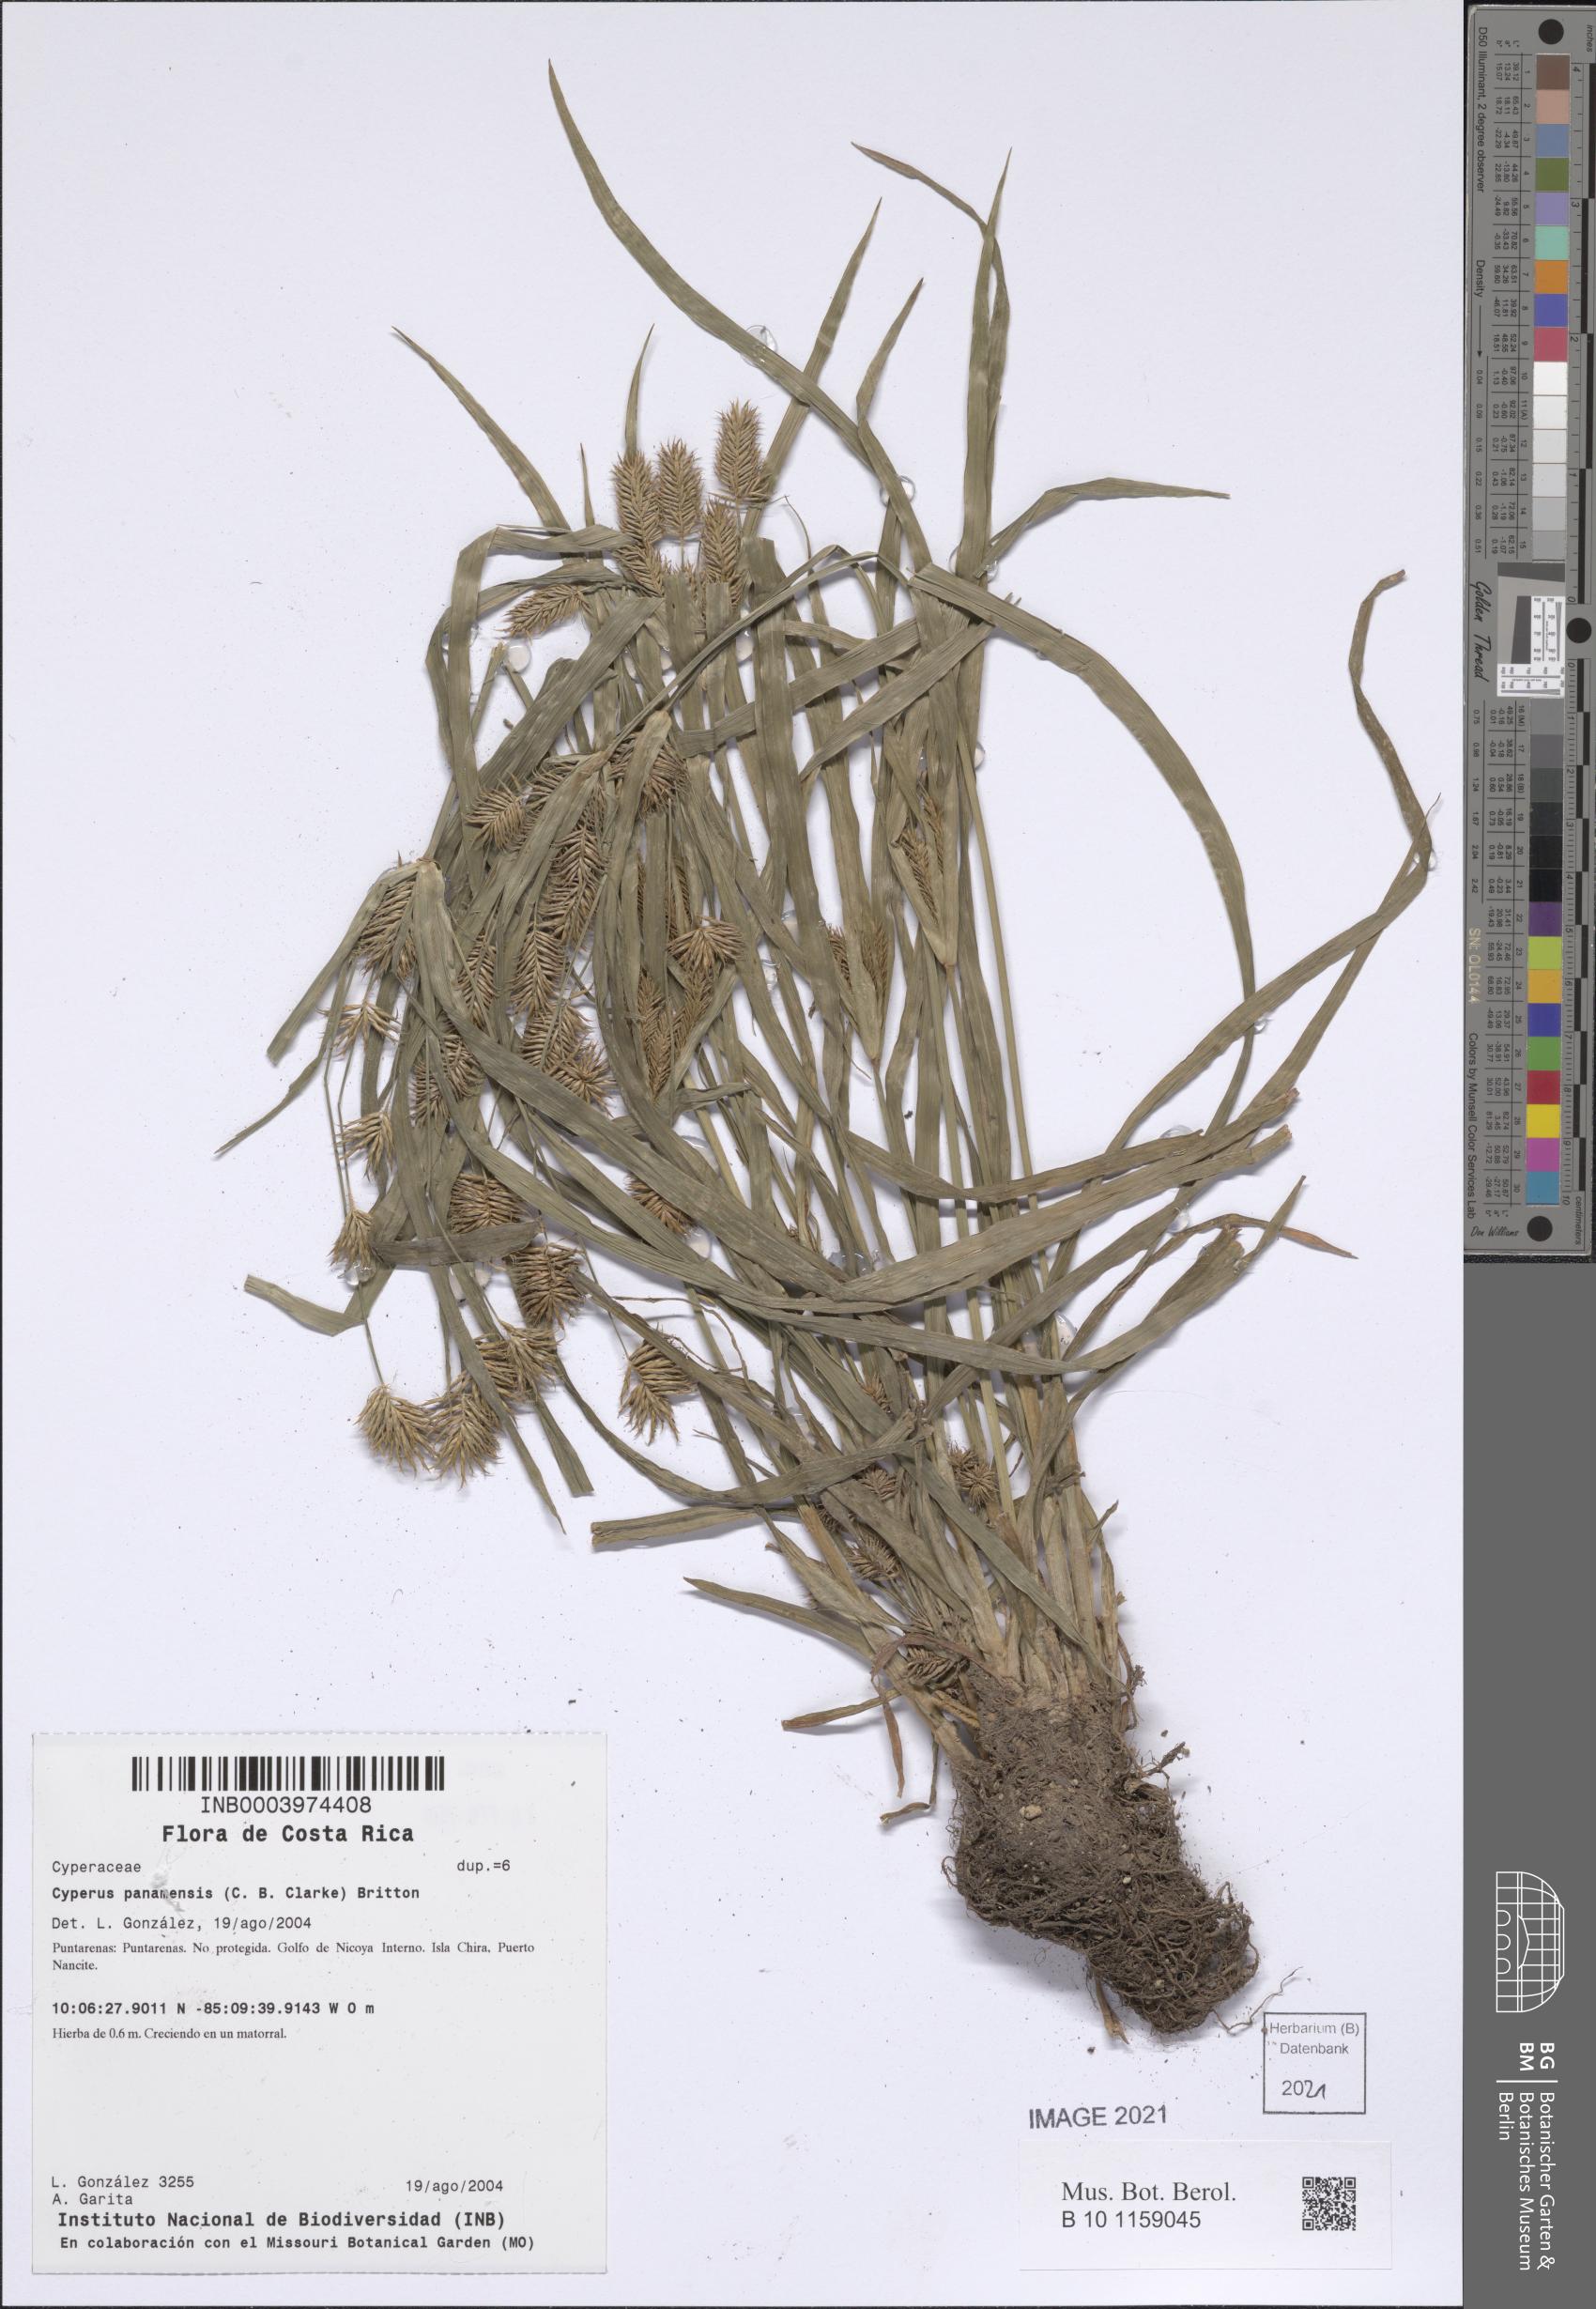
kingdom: Plantae
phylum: Tracheophyta
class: Liliopsida
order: Poales
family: Cyperaceae
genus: Cyperus
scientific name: Cyperus panamensis
